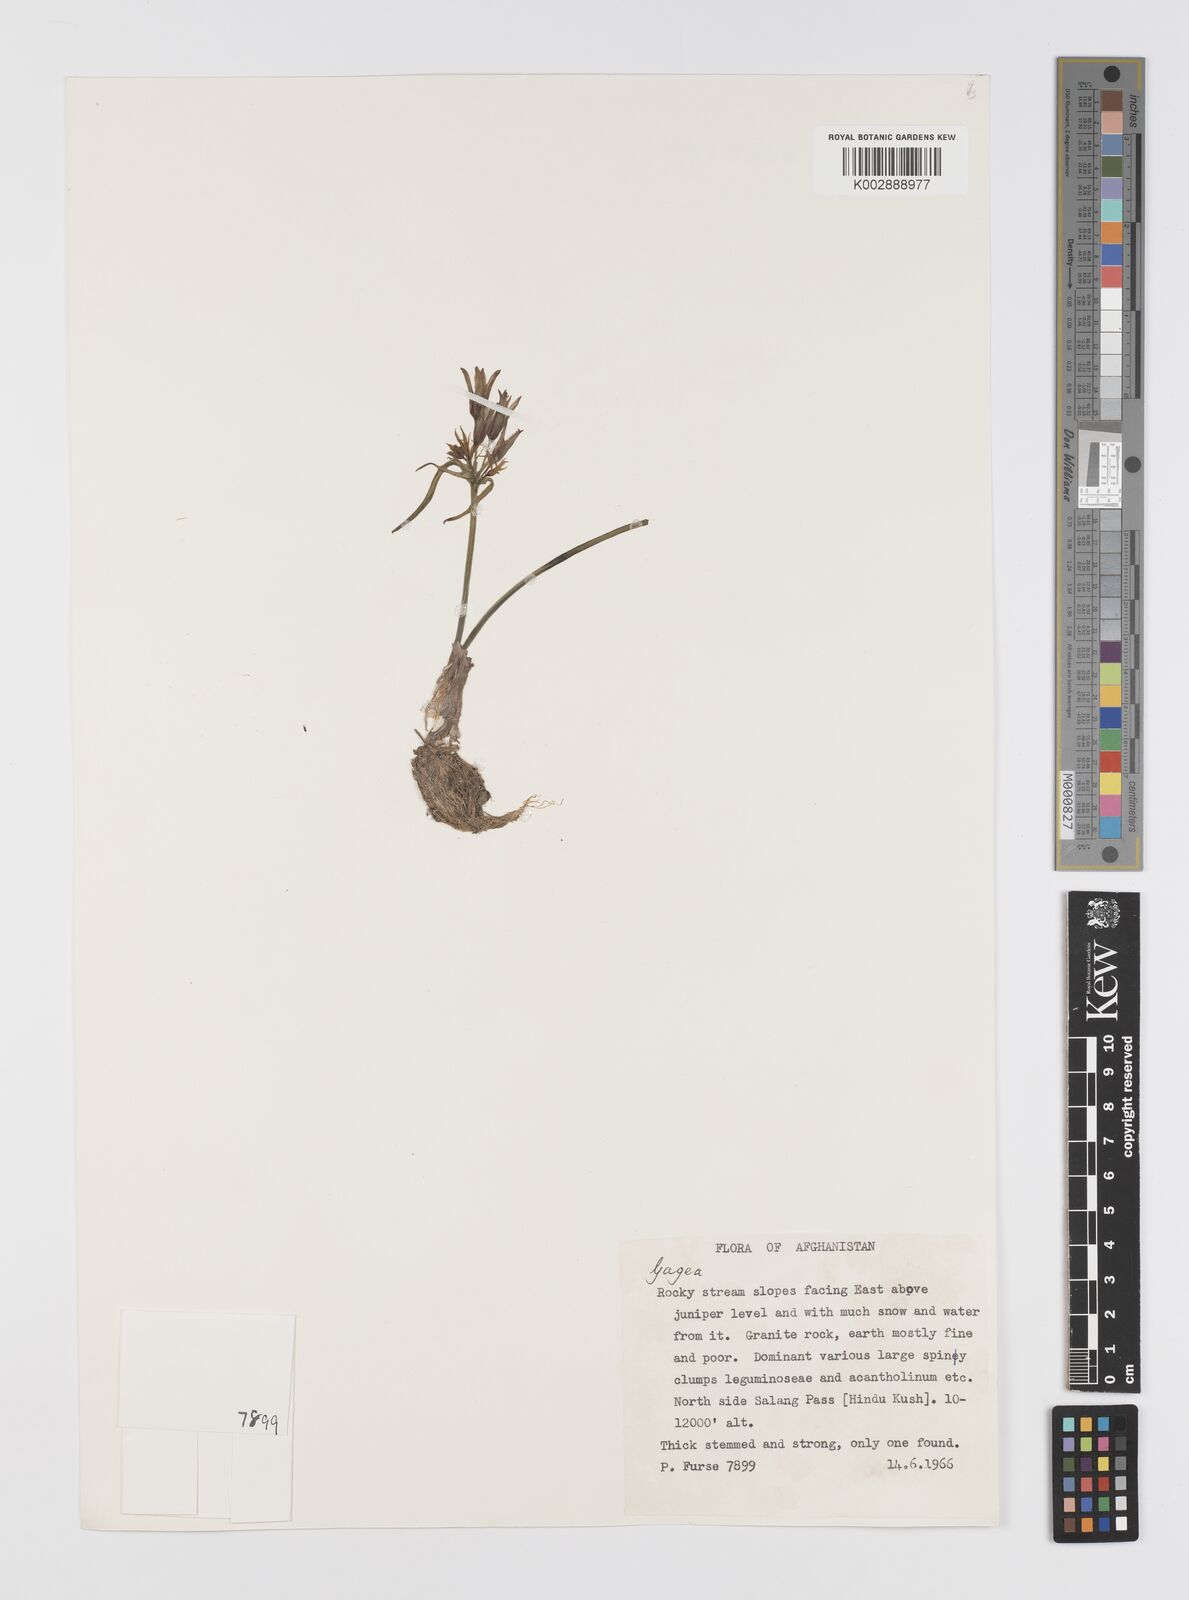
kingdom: Plantae
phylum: Tracheophyta
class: Liliopsida
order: Liliales
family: Liliaceae
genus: Gagea
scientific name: Gagea
